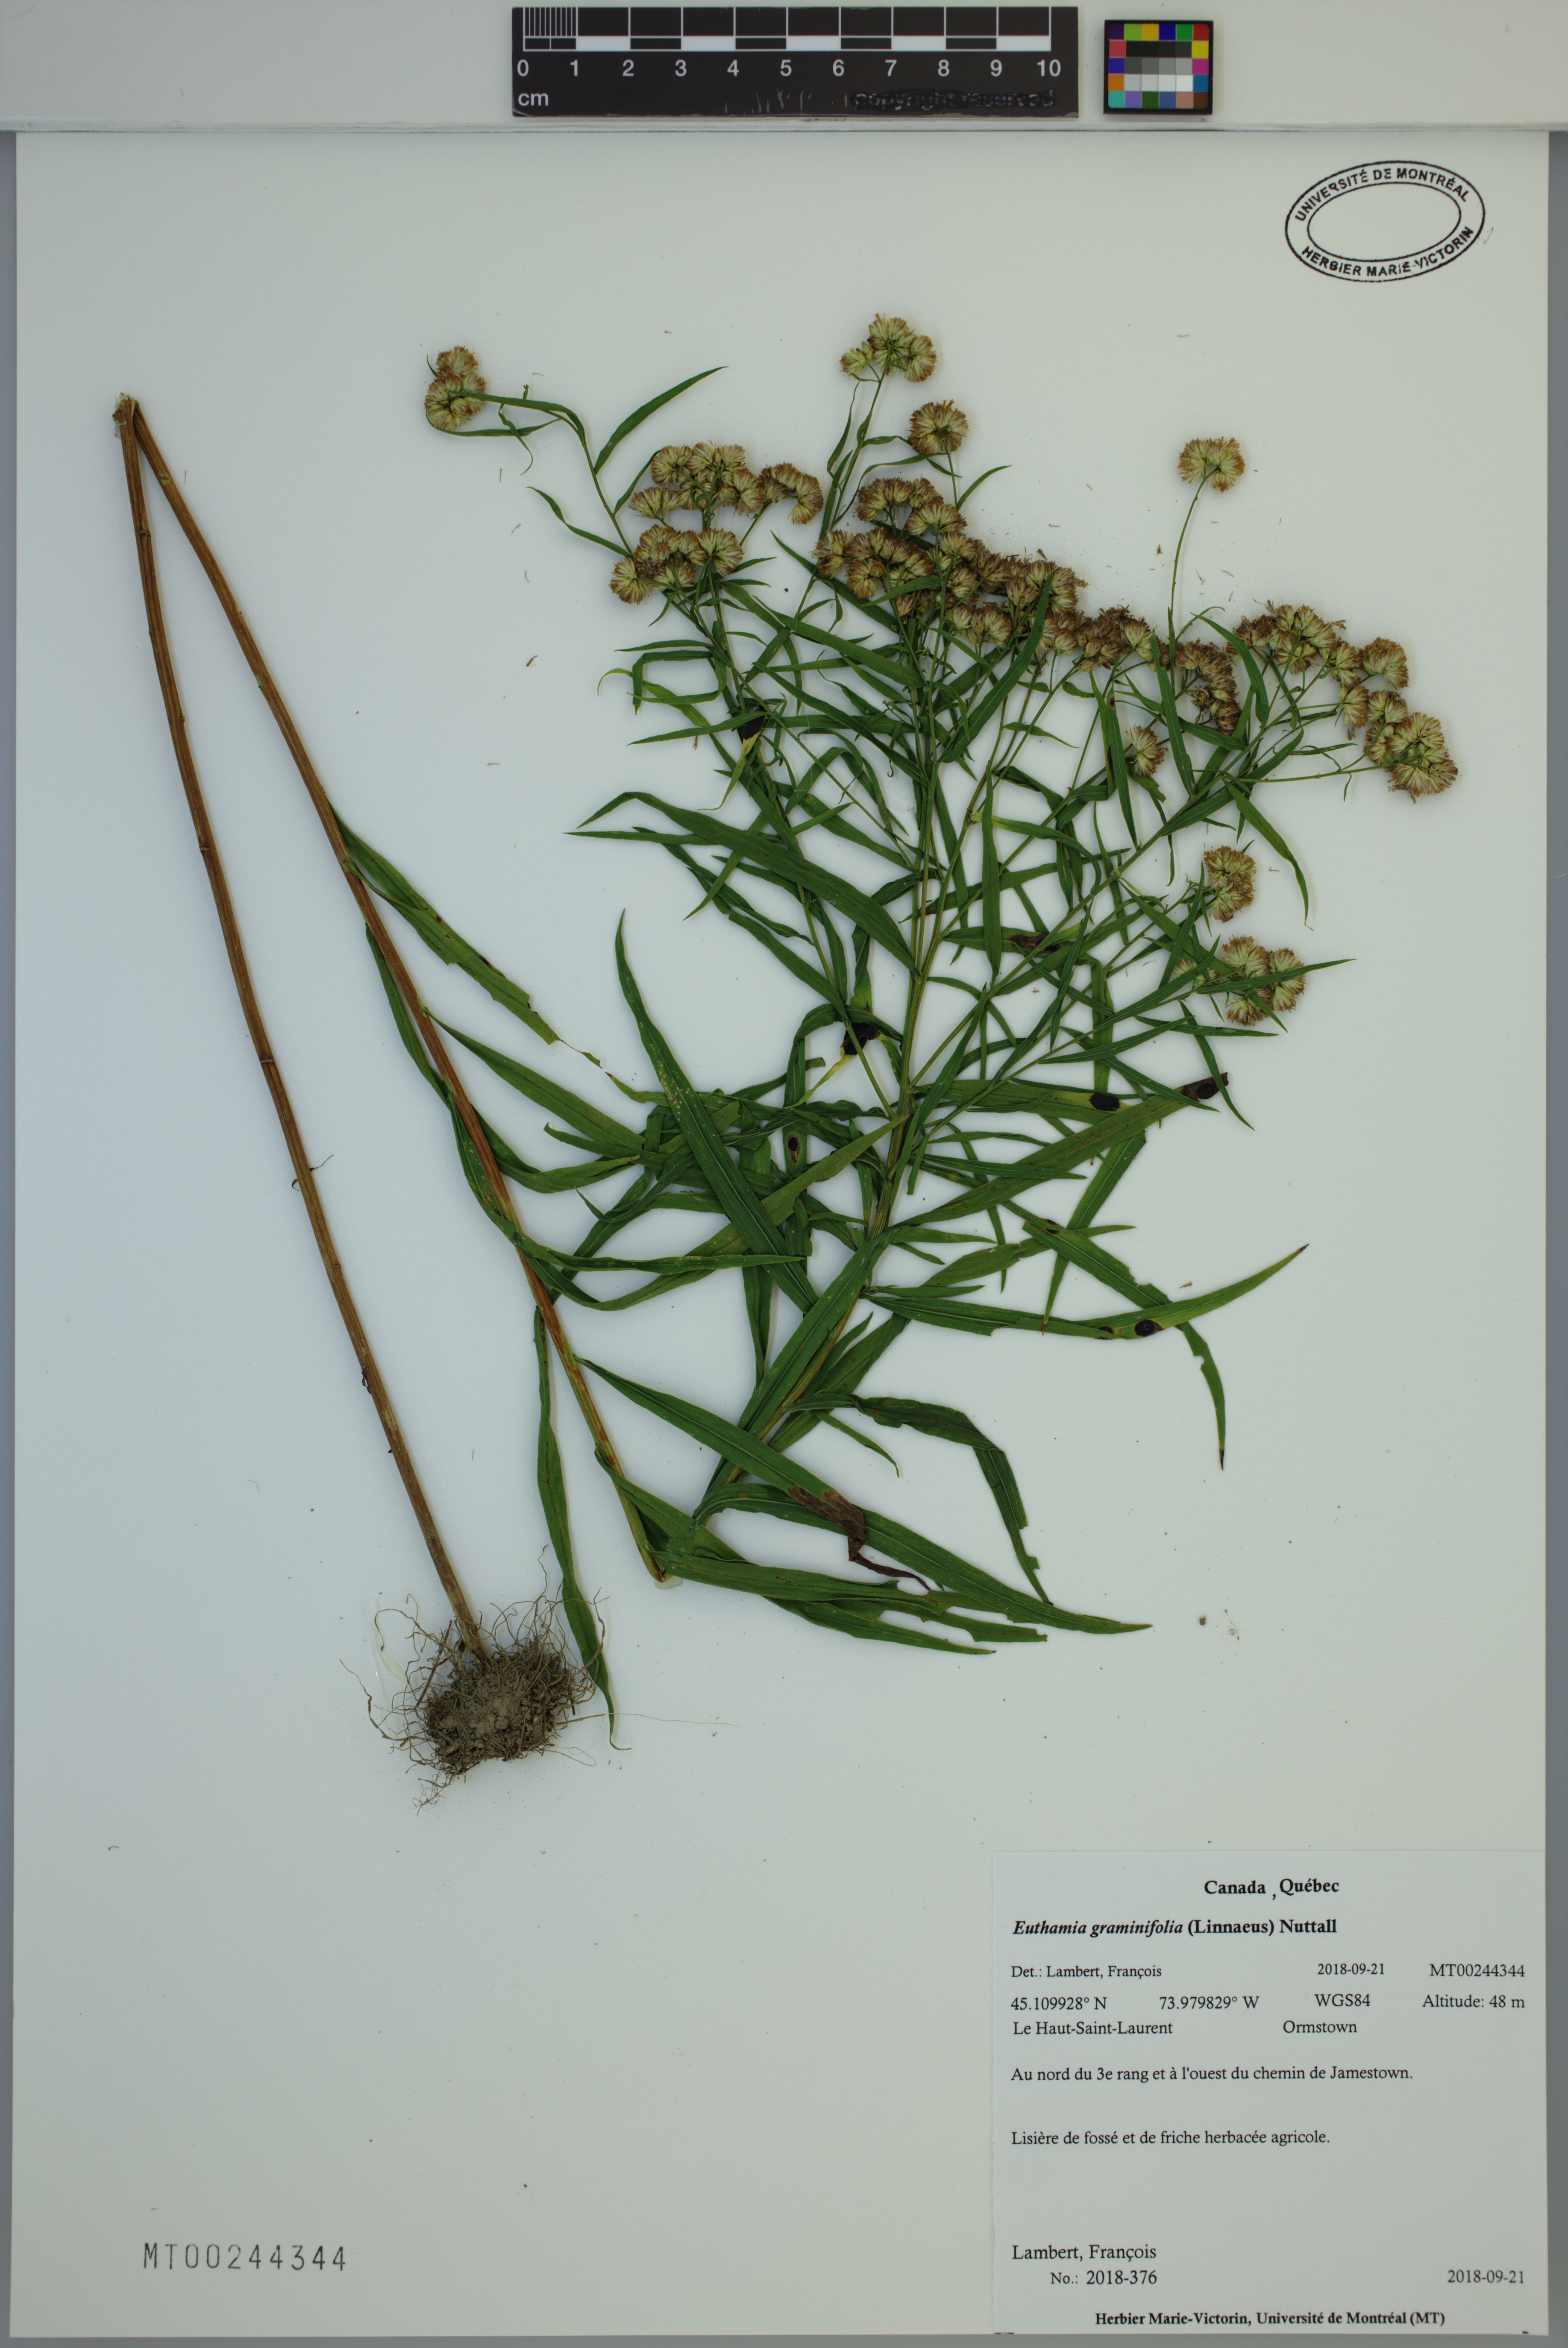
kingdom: Plantae
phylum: Tracheophyta
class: Magnoliopsida
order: Asterales
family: Asteraceae
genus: Euthamia
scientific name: Euthamia graminifolia
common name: Common goldentop
